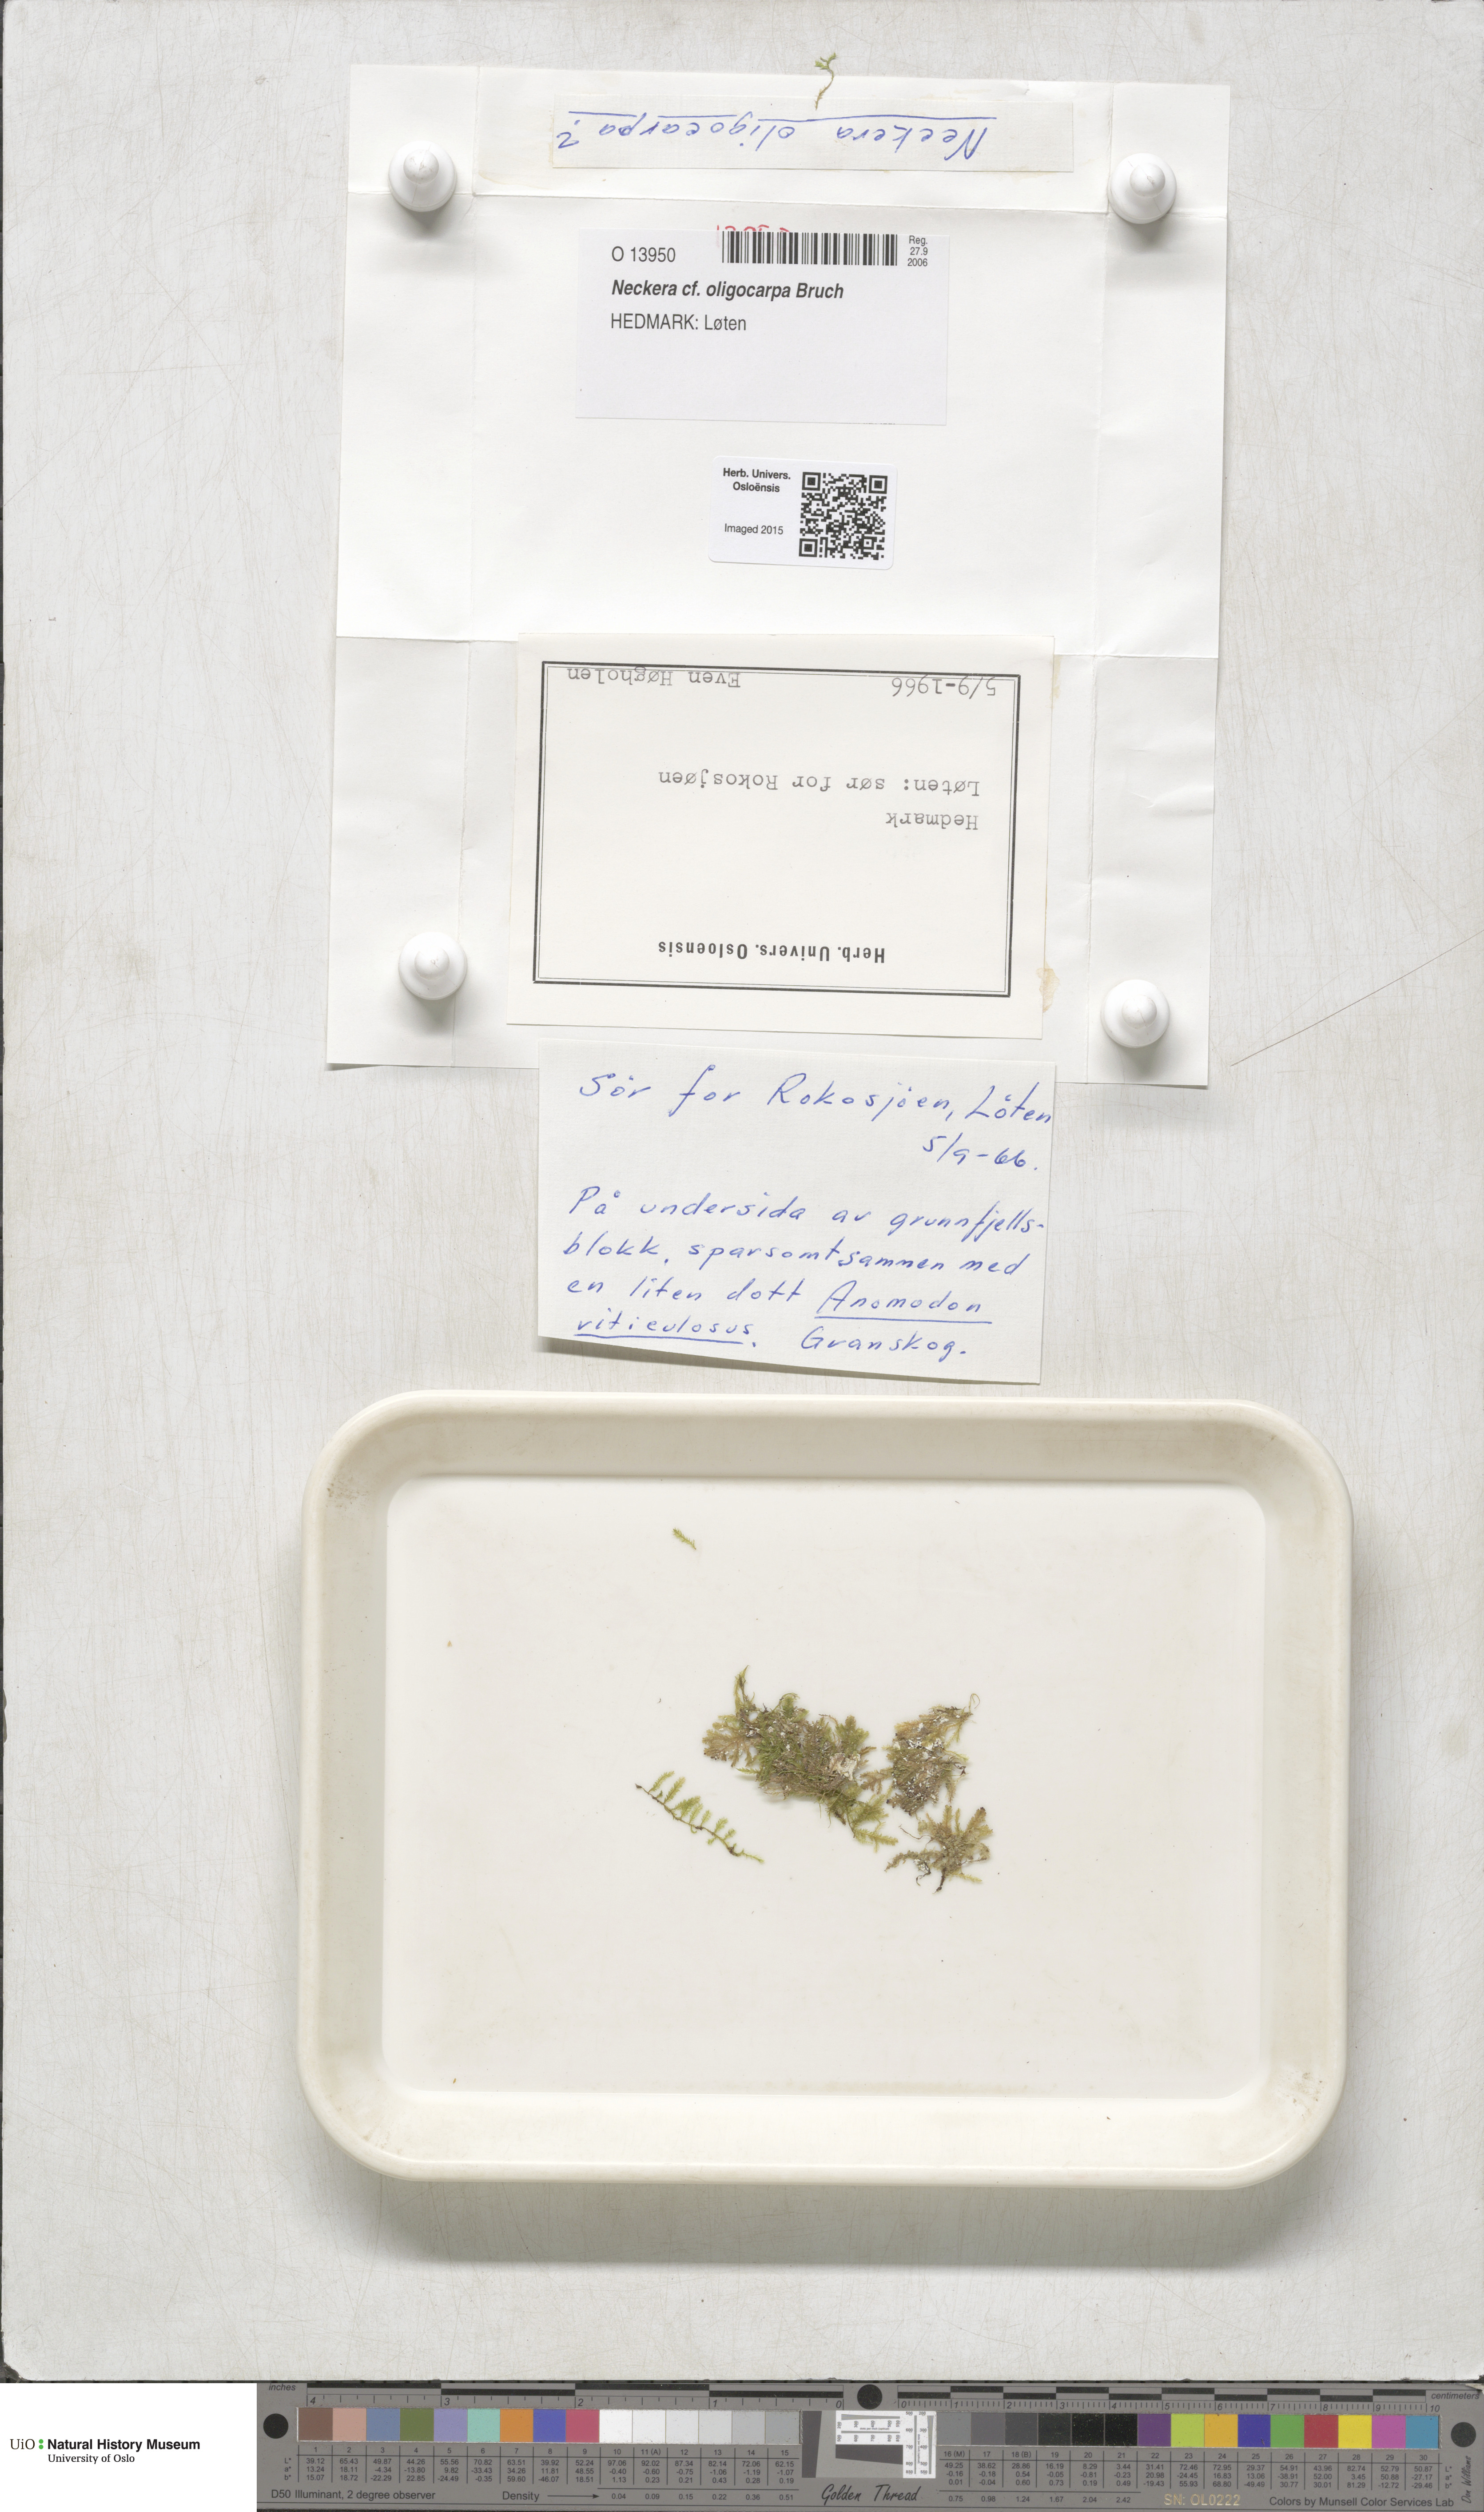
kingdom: Plantae
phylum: Bryophyta
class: Bryopsida
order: Hypnales
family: Neckeraceae
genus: Neckera
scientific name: Neckera oligocarpa
